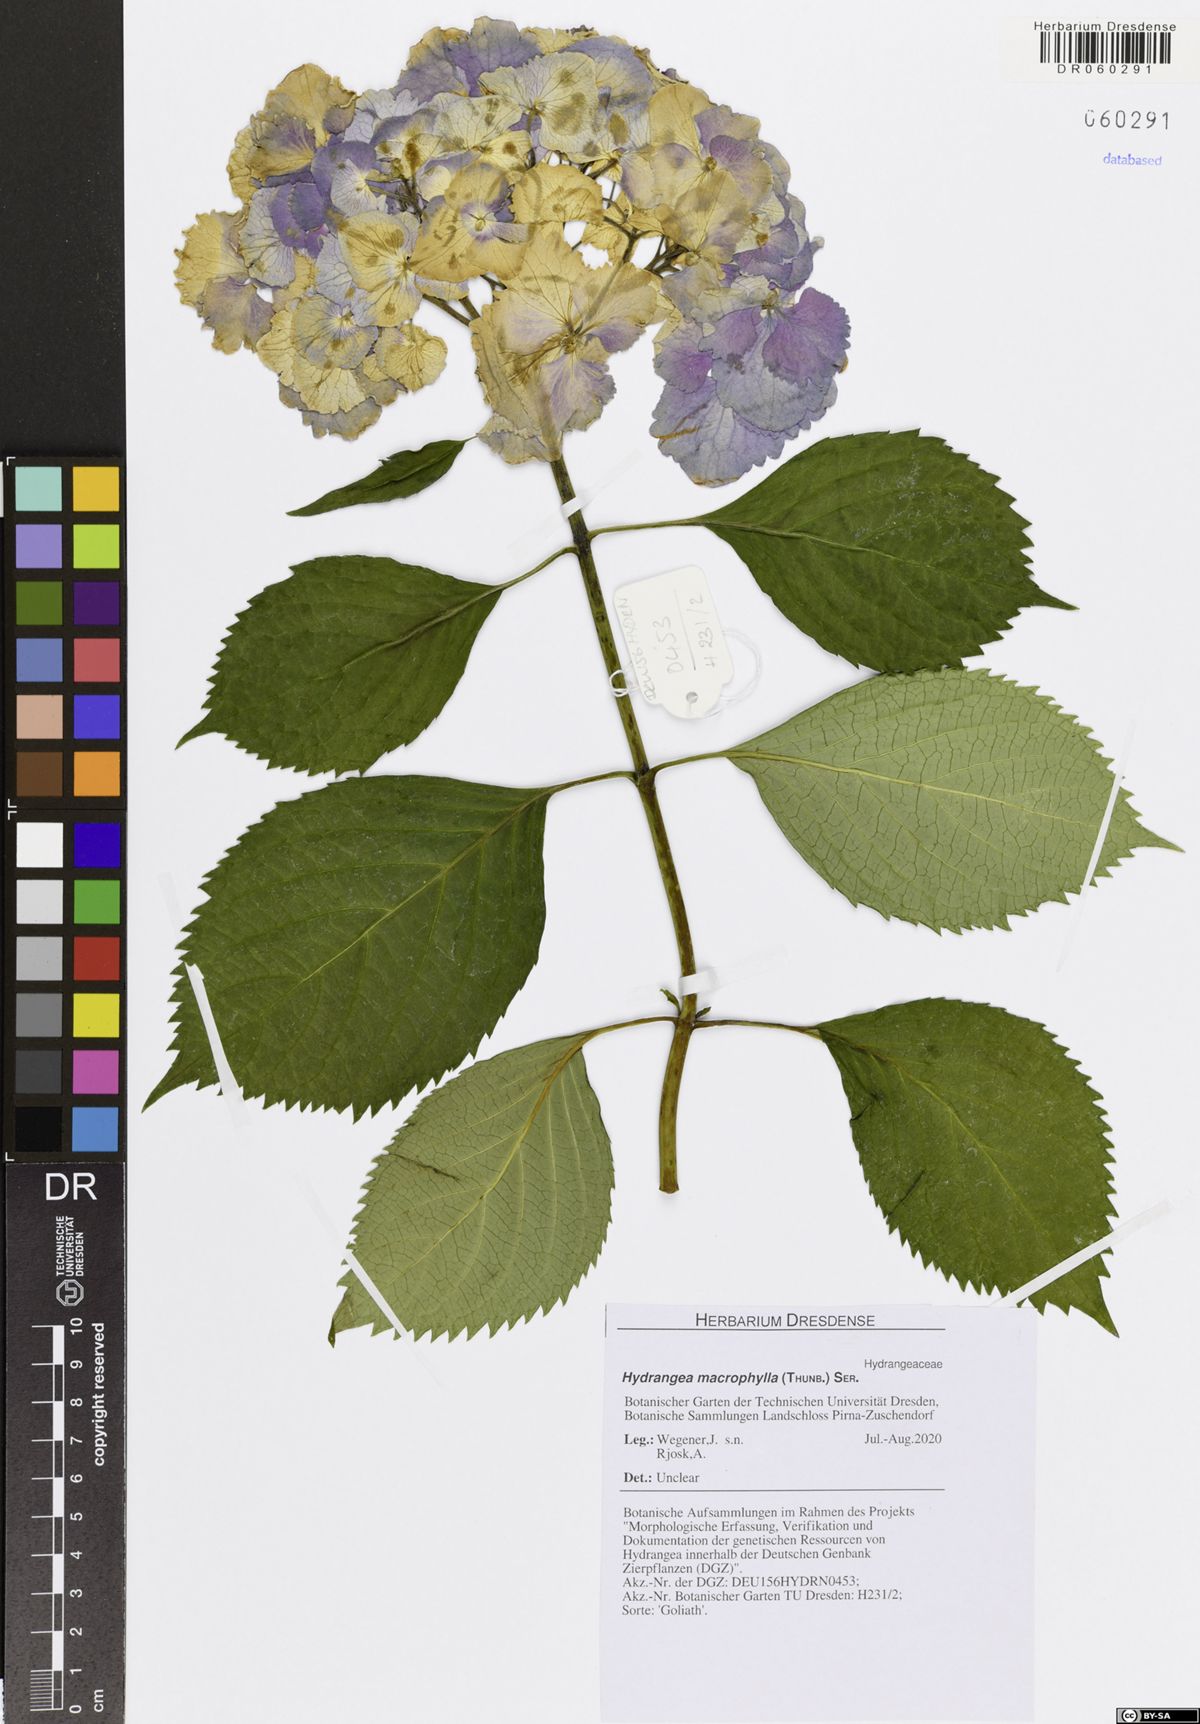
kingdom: Plantae
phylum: Tracheophyta
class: Magnoliopsida
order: Cornales
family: Hydrangeaceae
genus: Hydrangea
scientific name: Hydrangea macrophylla
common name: Hydrangea
